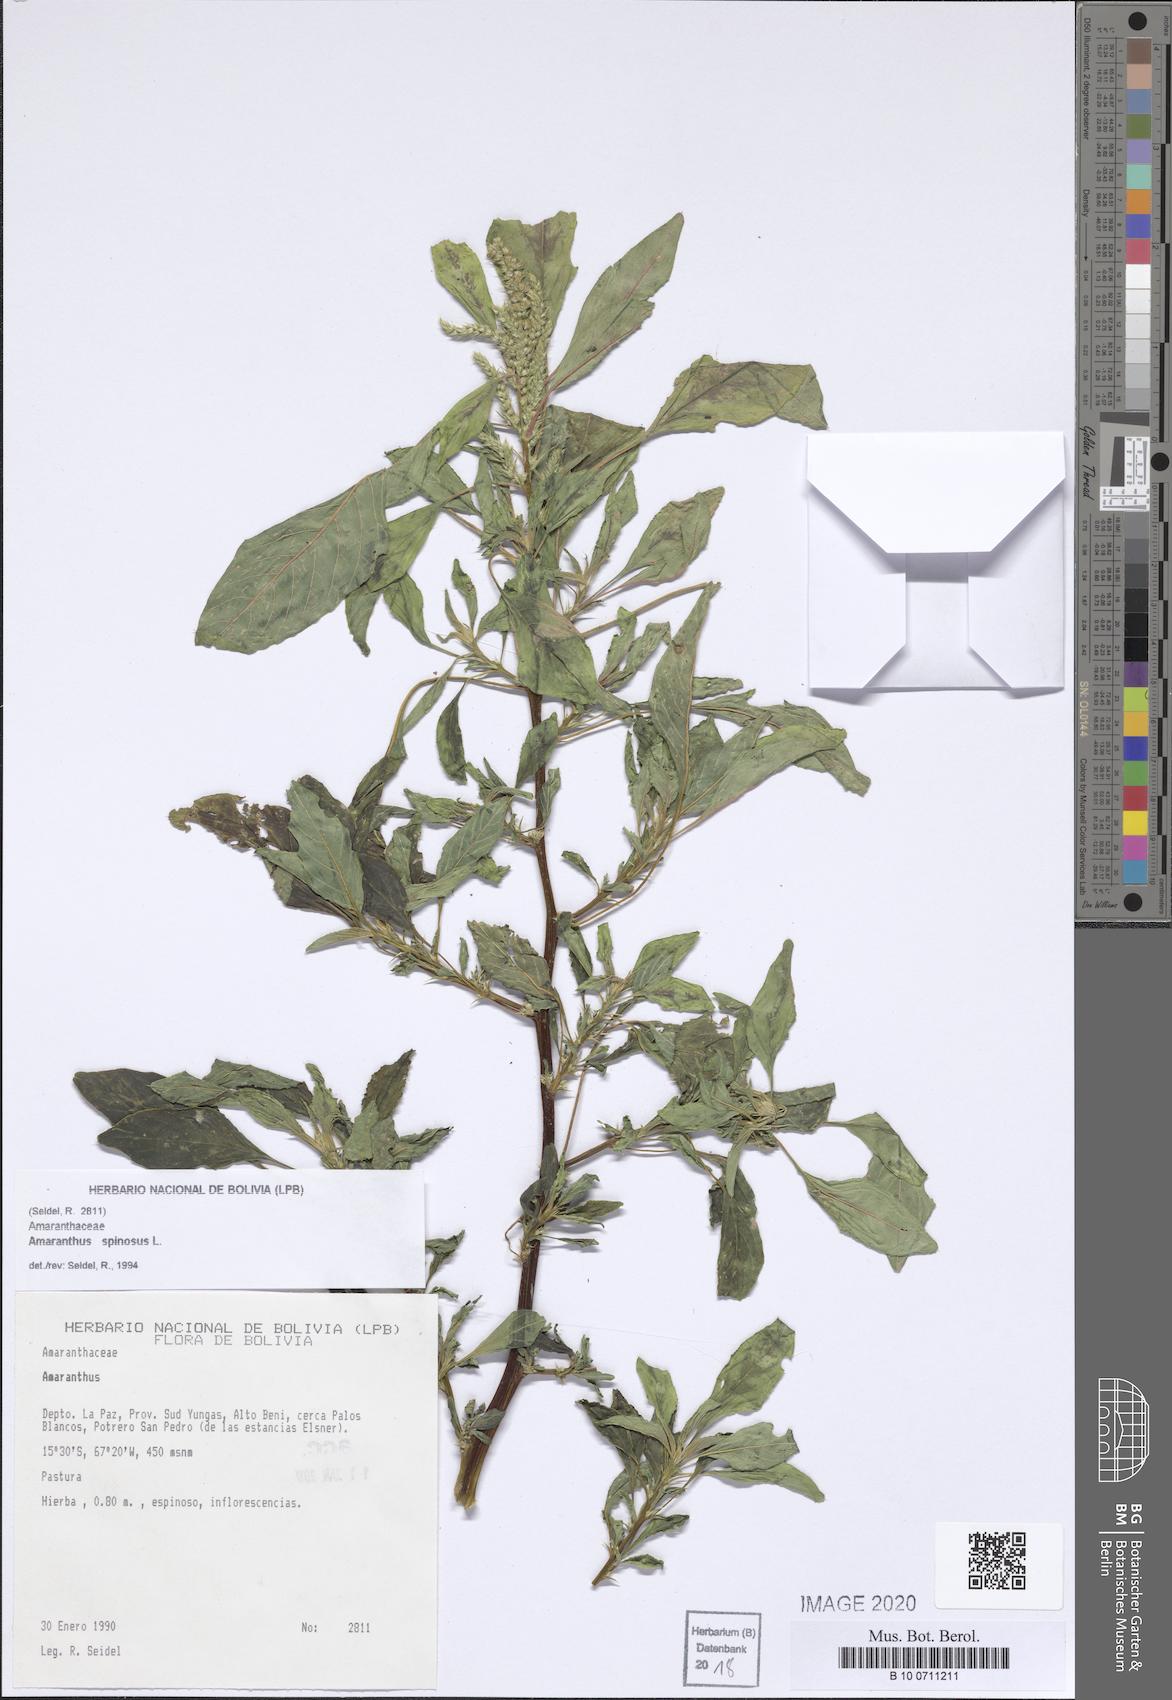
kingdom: Plantae
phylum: Tracheophyta
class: Magnoliopsida
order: Caryophyllales
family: Amaranthaceae
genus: Amaranthus
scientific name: Amaranthus spinosus
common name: Spiny amaranth
